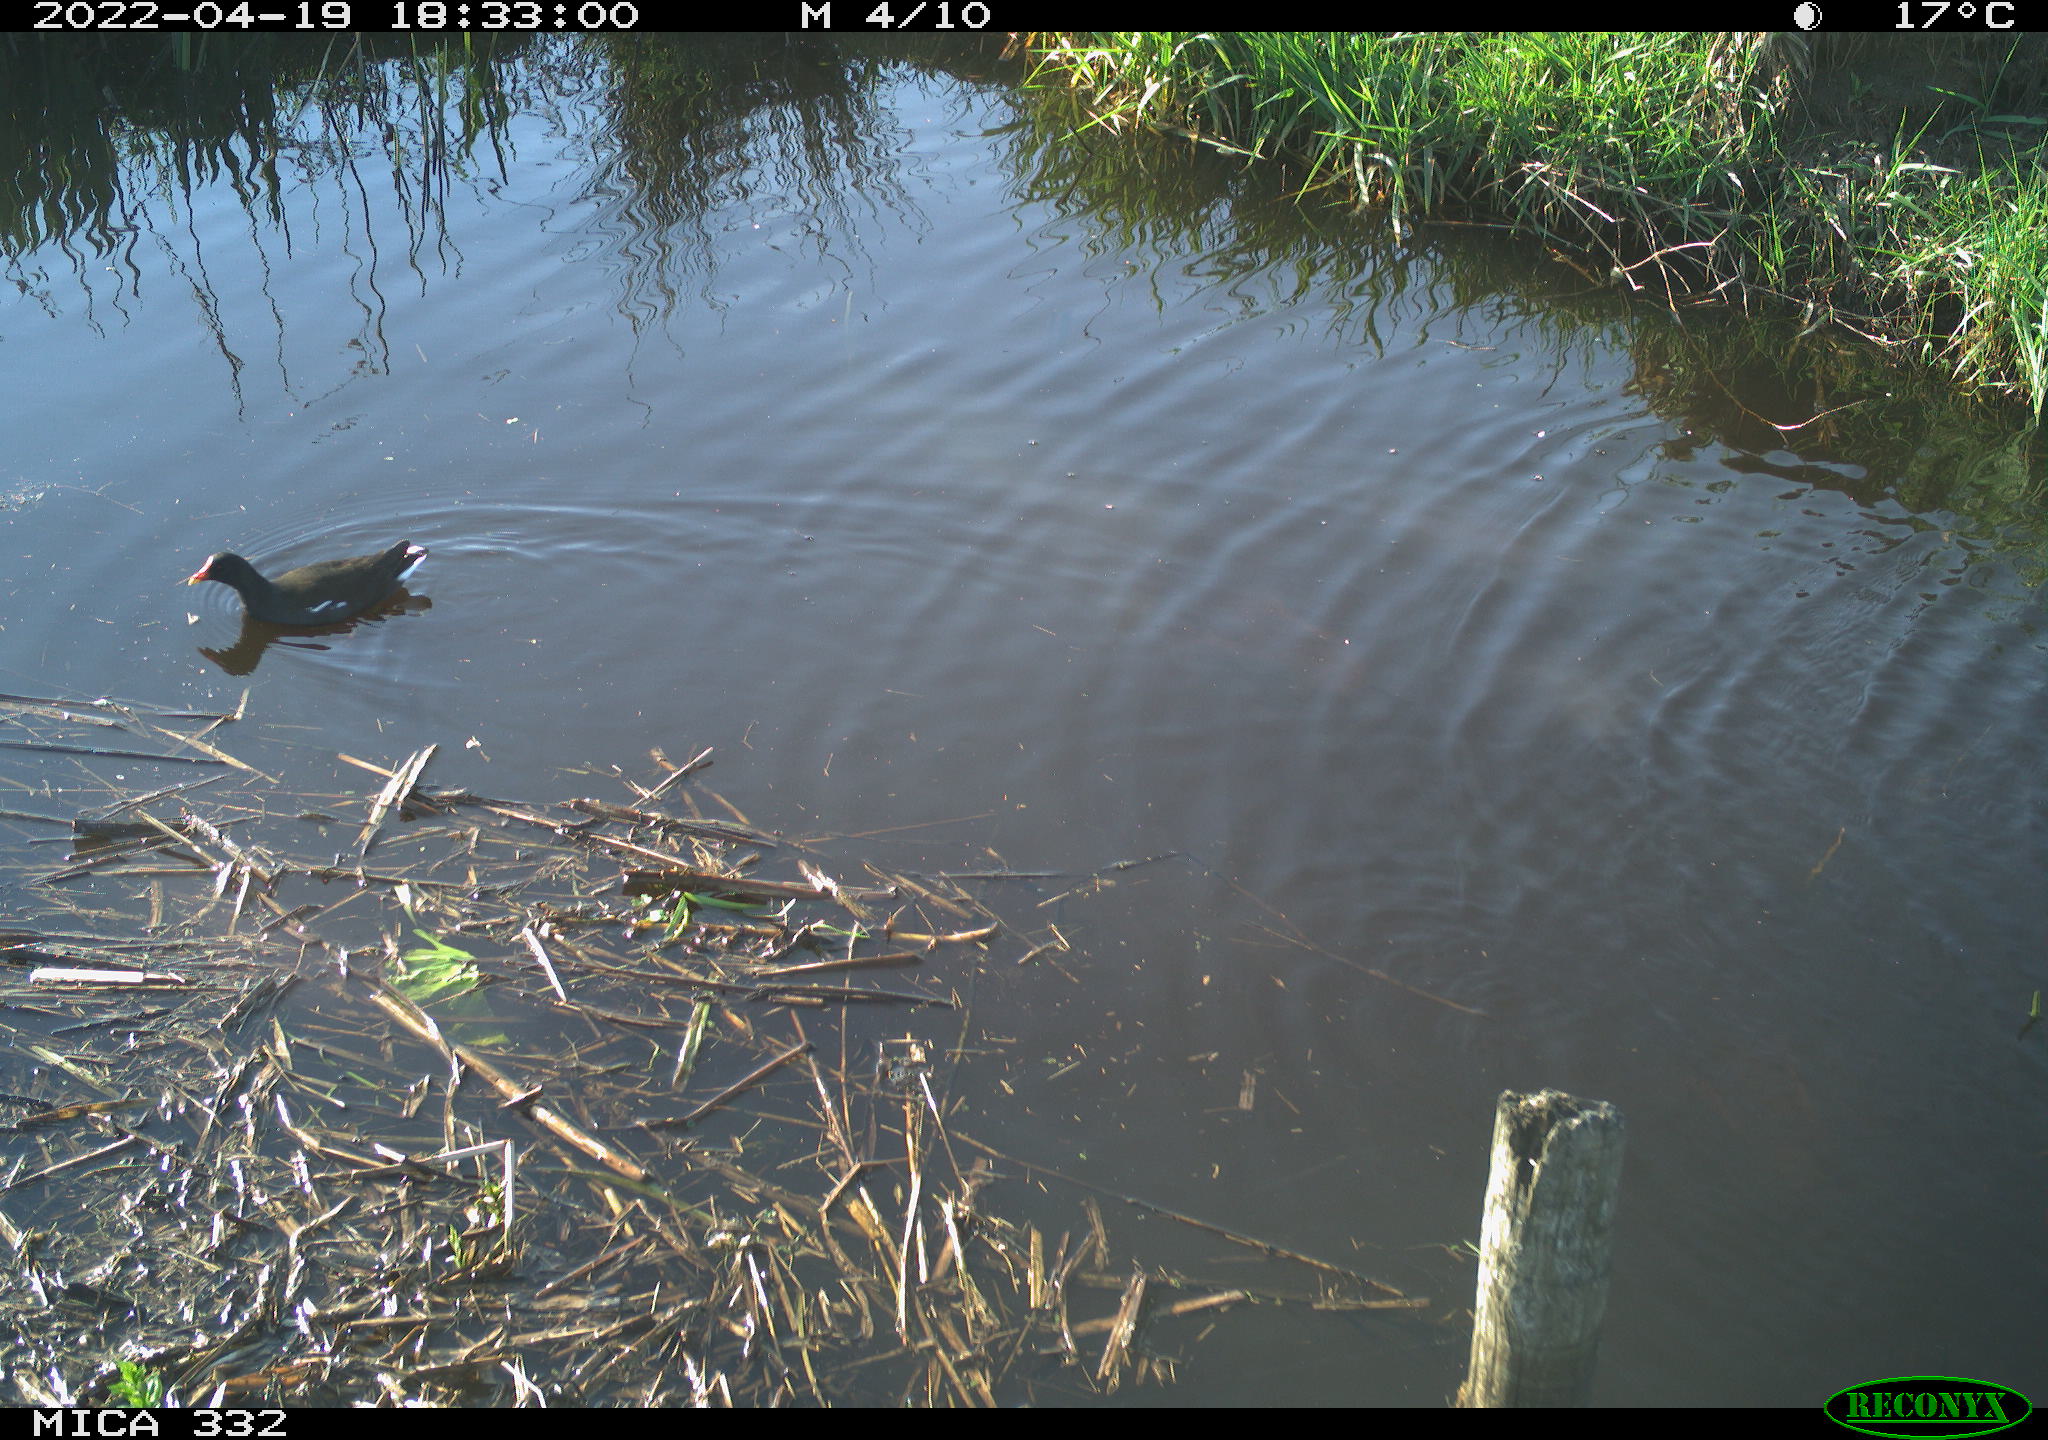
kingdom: Animalia
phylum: Chordata
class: Aves
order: Gruiformes
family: Rallidae
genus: Gallinula
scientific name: Gallinula chloropus
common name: Common moorhen
